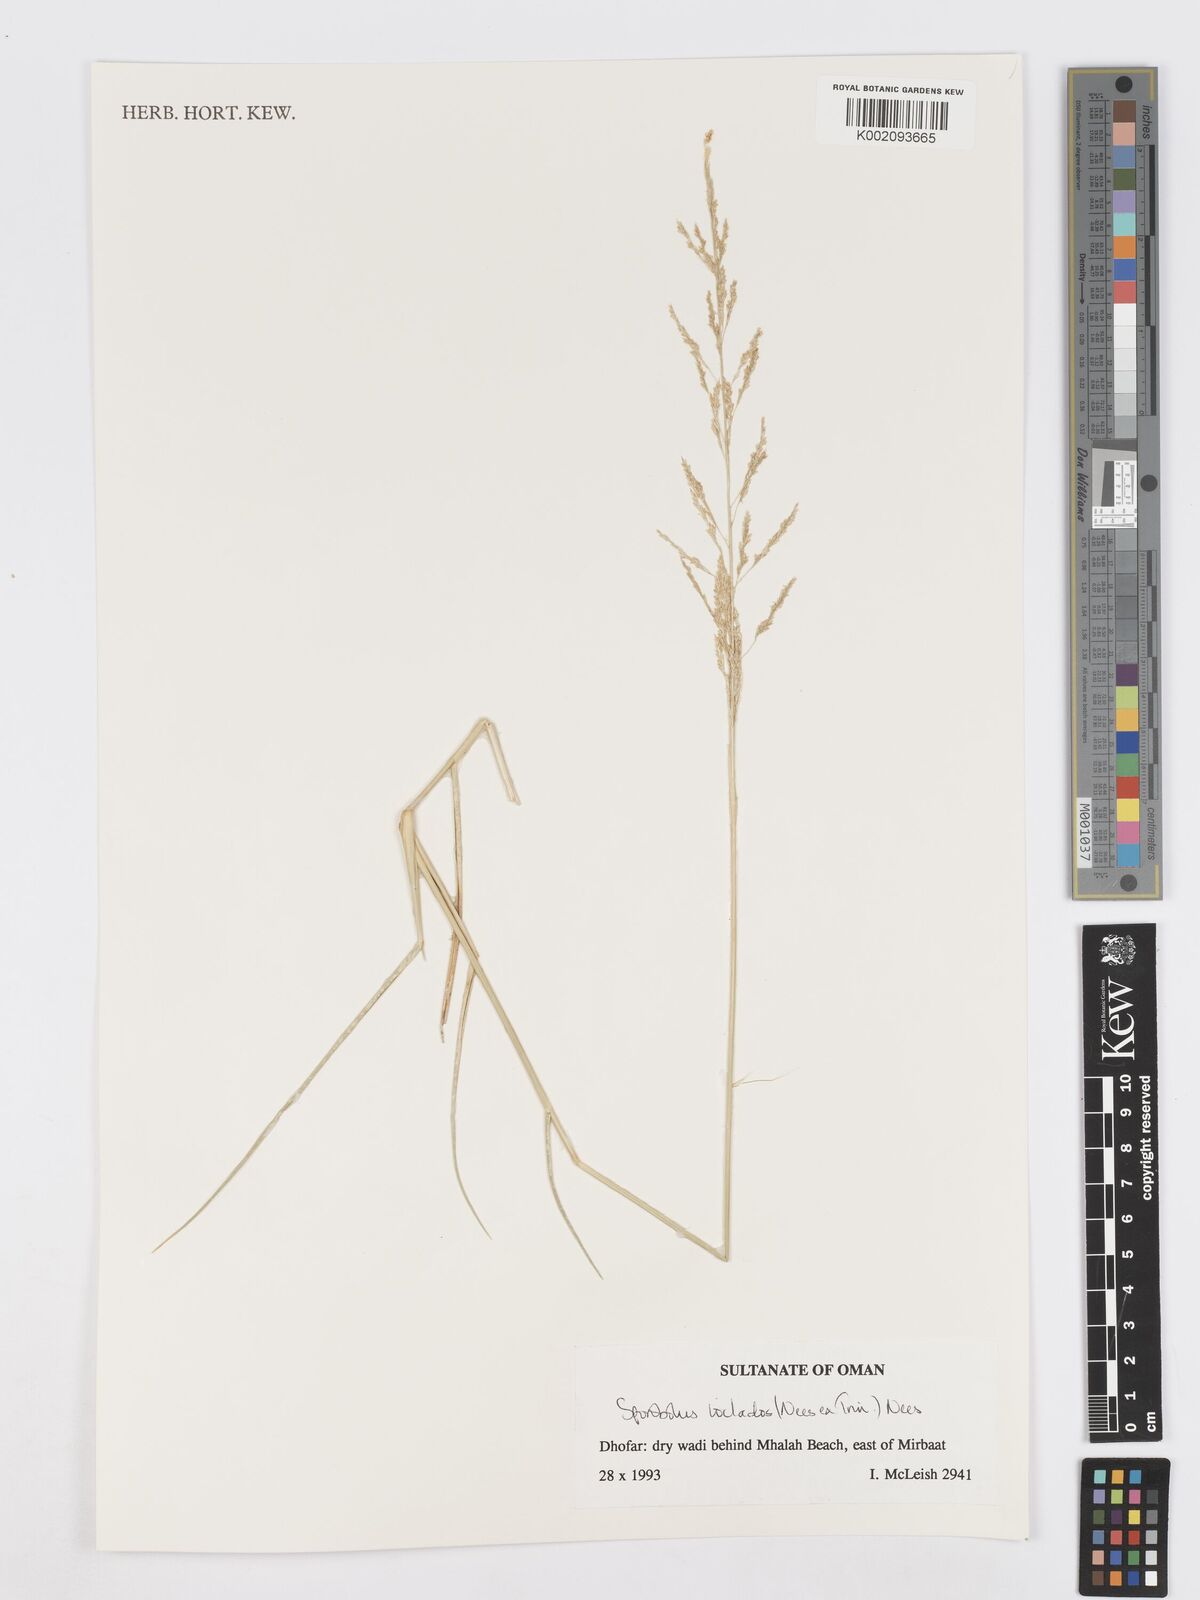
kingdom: Plantae
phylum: Tracheophyta
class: Liliopsida
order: Poales
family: Poaceae
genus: Sporobolus
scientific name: Sporobolus ioclados
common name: Pan dropseed
